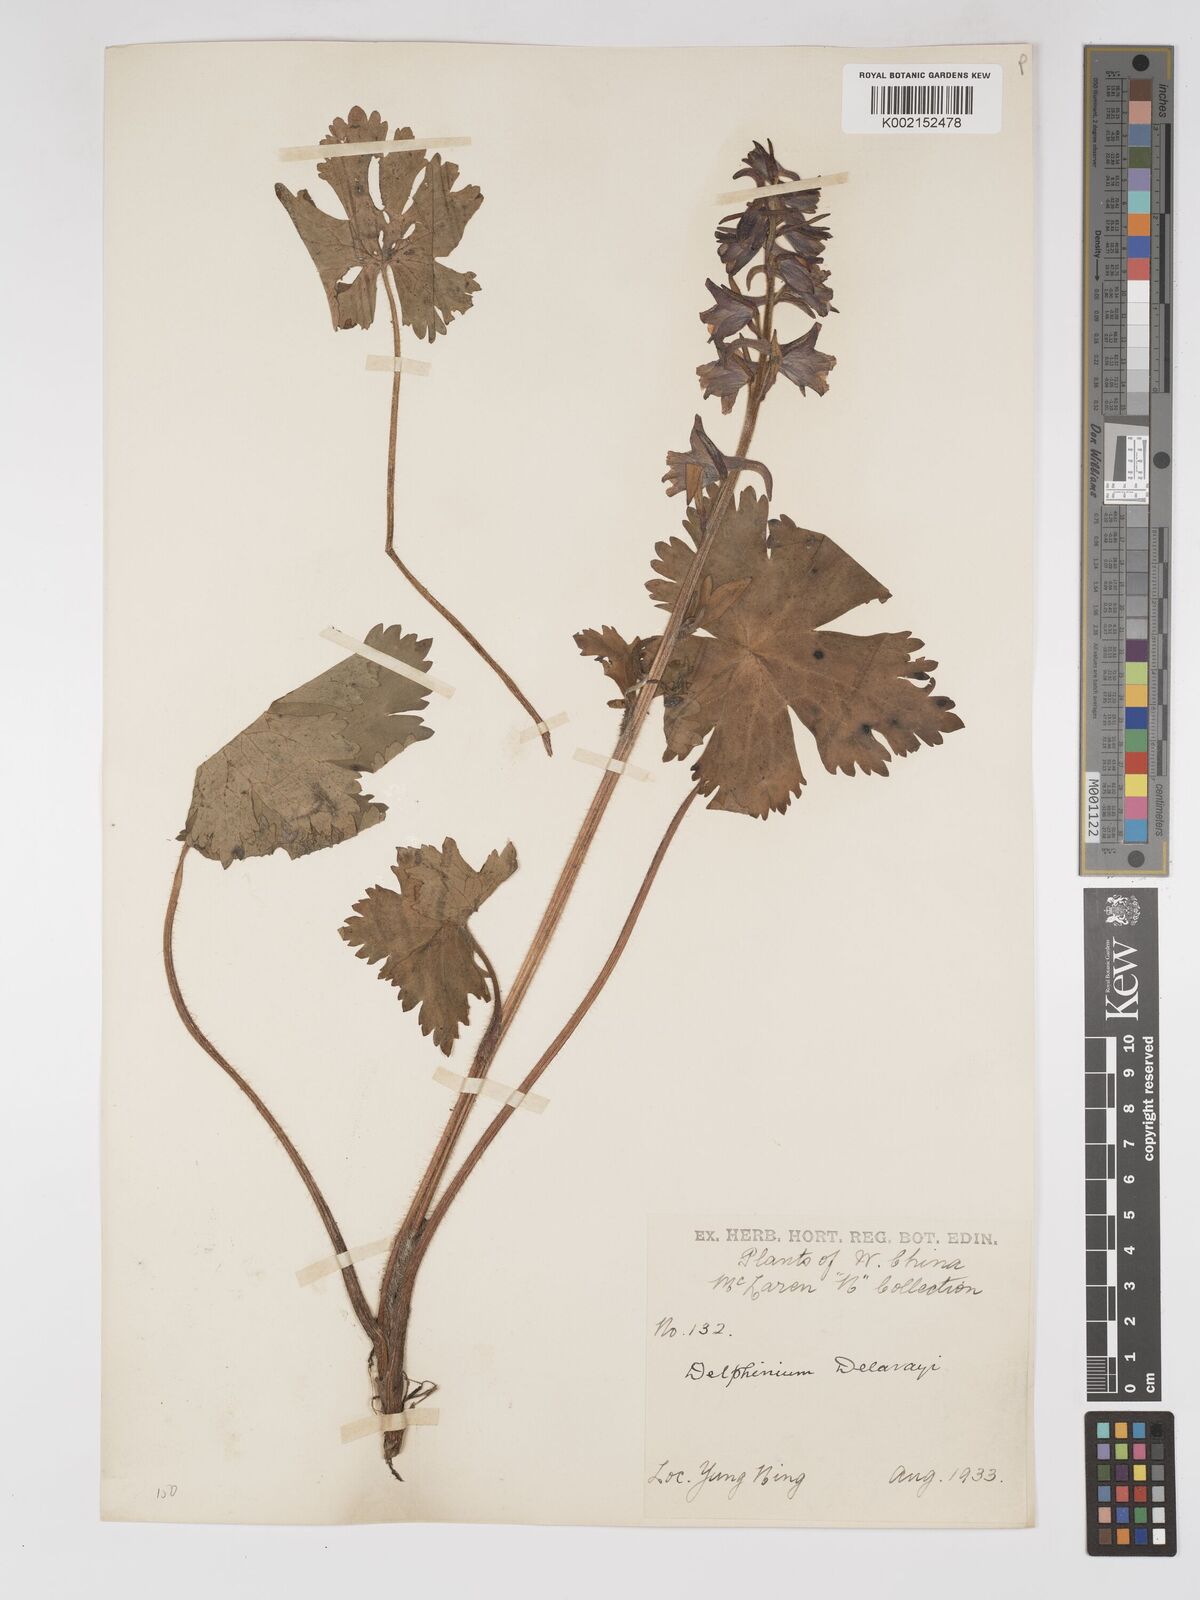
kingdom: Plantae
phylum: Tracheophyta
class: Magnoliopsida
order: Ranunculales
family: Ranunculaceae
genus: Delphinium
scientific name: Delphinium delavayi
